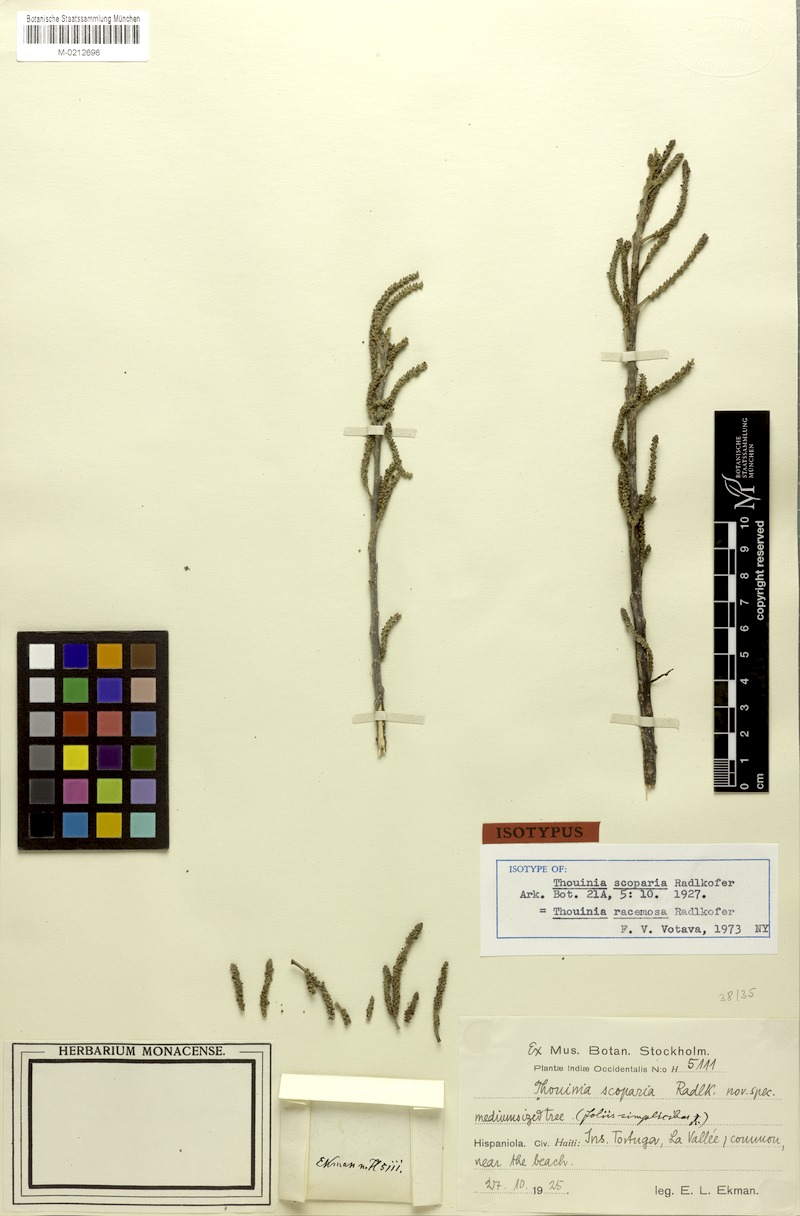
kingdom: Plantae
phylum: Tracheophyta
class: Magnoliopsida
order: Sapindales
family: Sapindaceae
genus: Thouinia
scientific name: Thouinia racemosa
